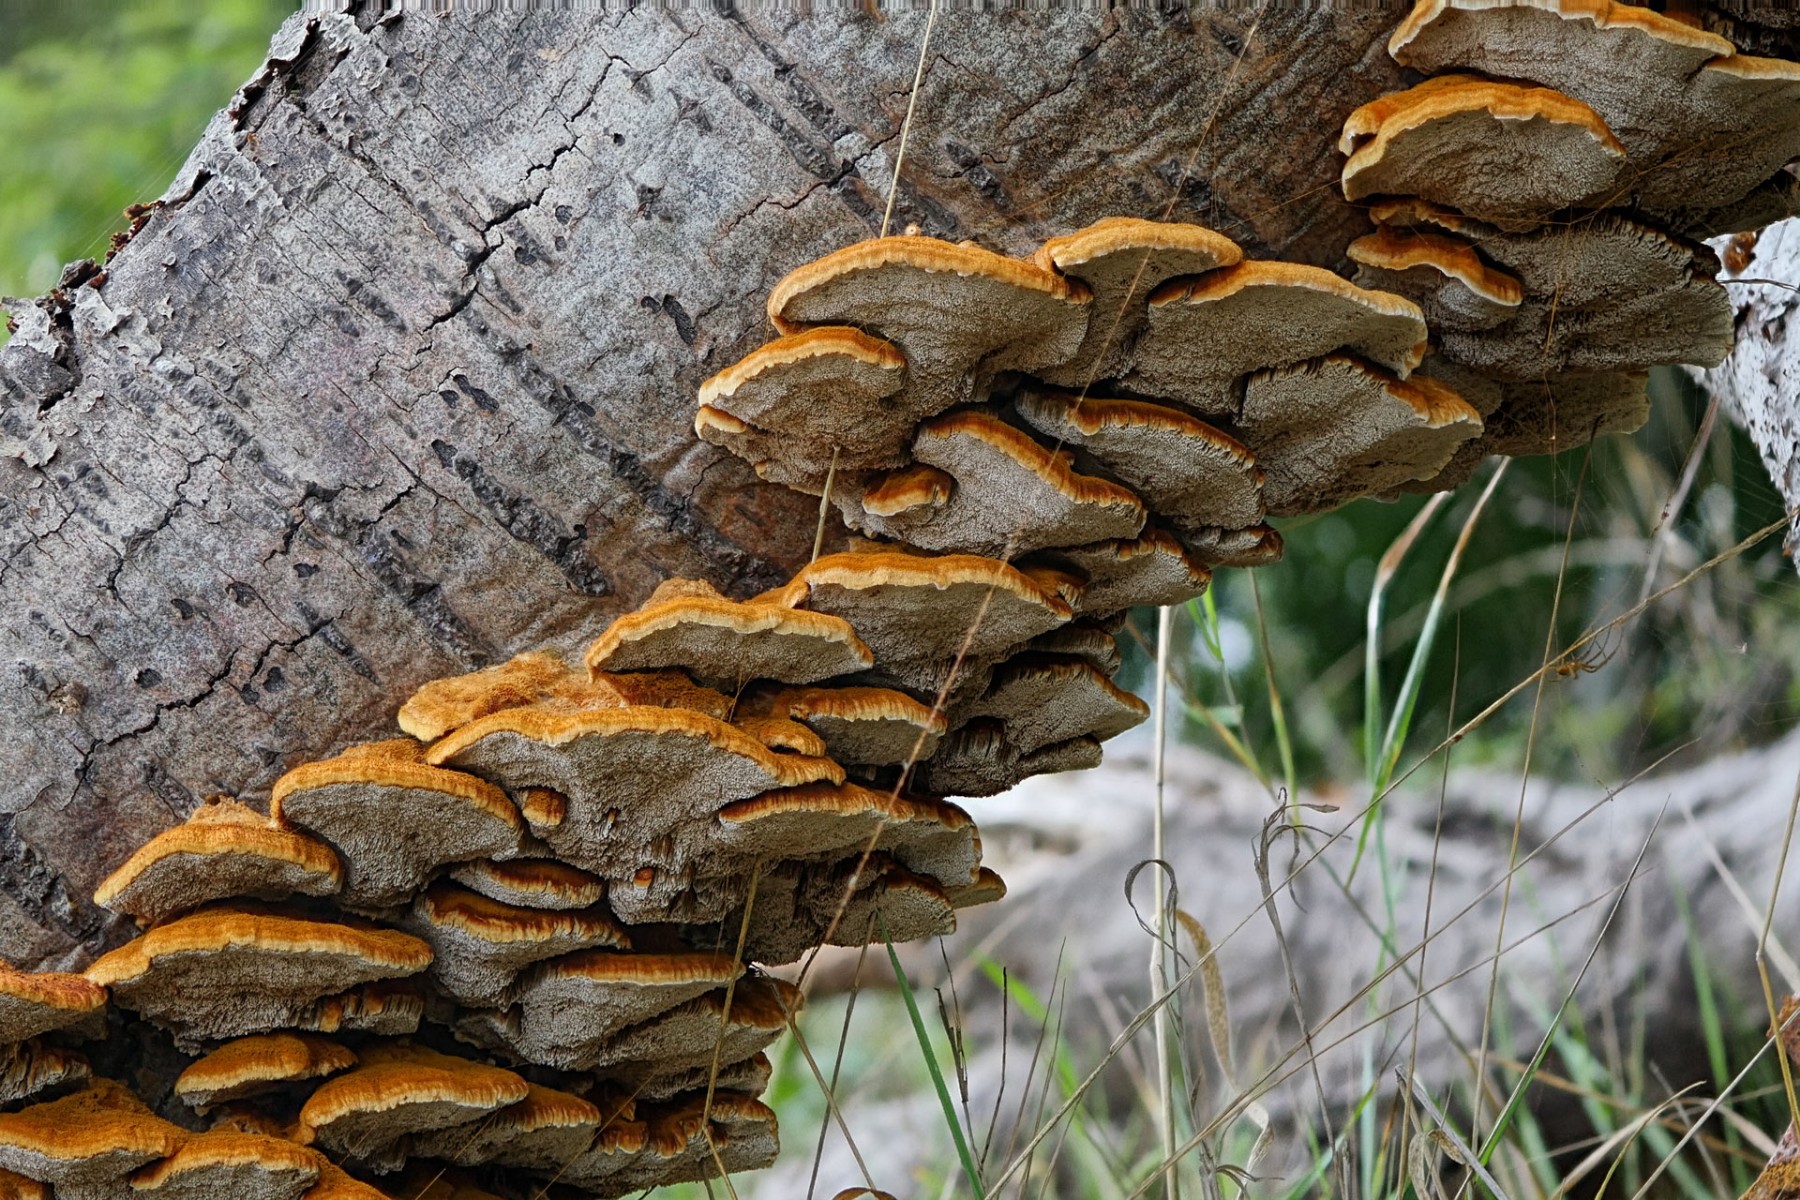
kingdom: Fungi
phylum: Basidiomycota
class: Agaricomycetes
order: Hymenochaetales
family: Hymenochaetaceae
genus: Inocutis
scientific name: Inocutis rheades
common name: ræve-spejlporesvamp
